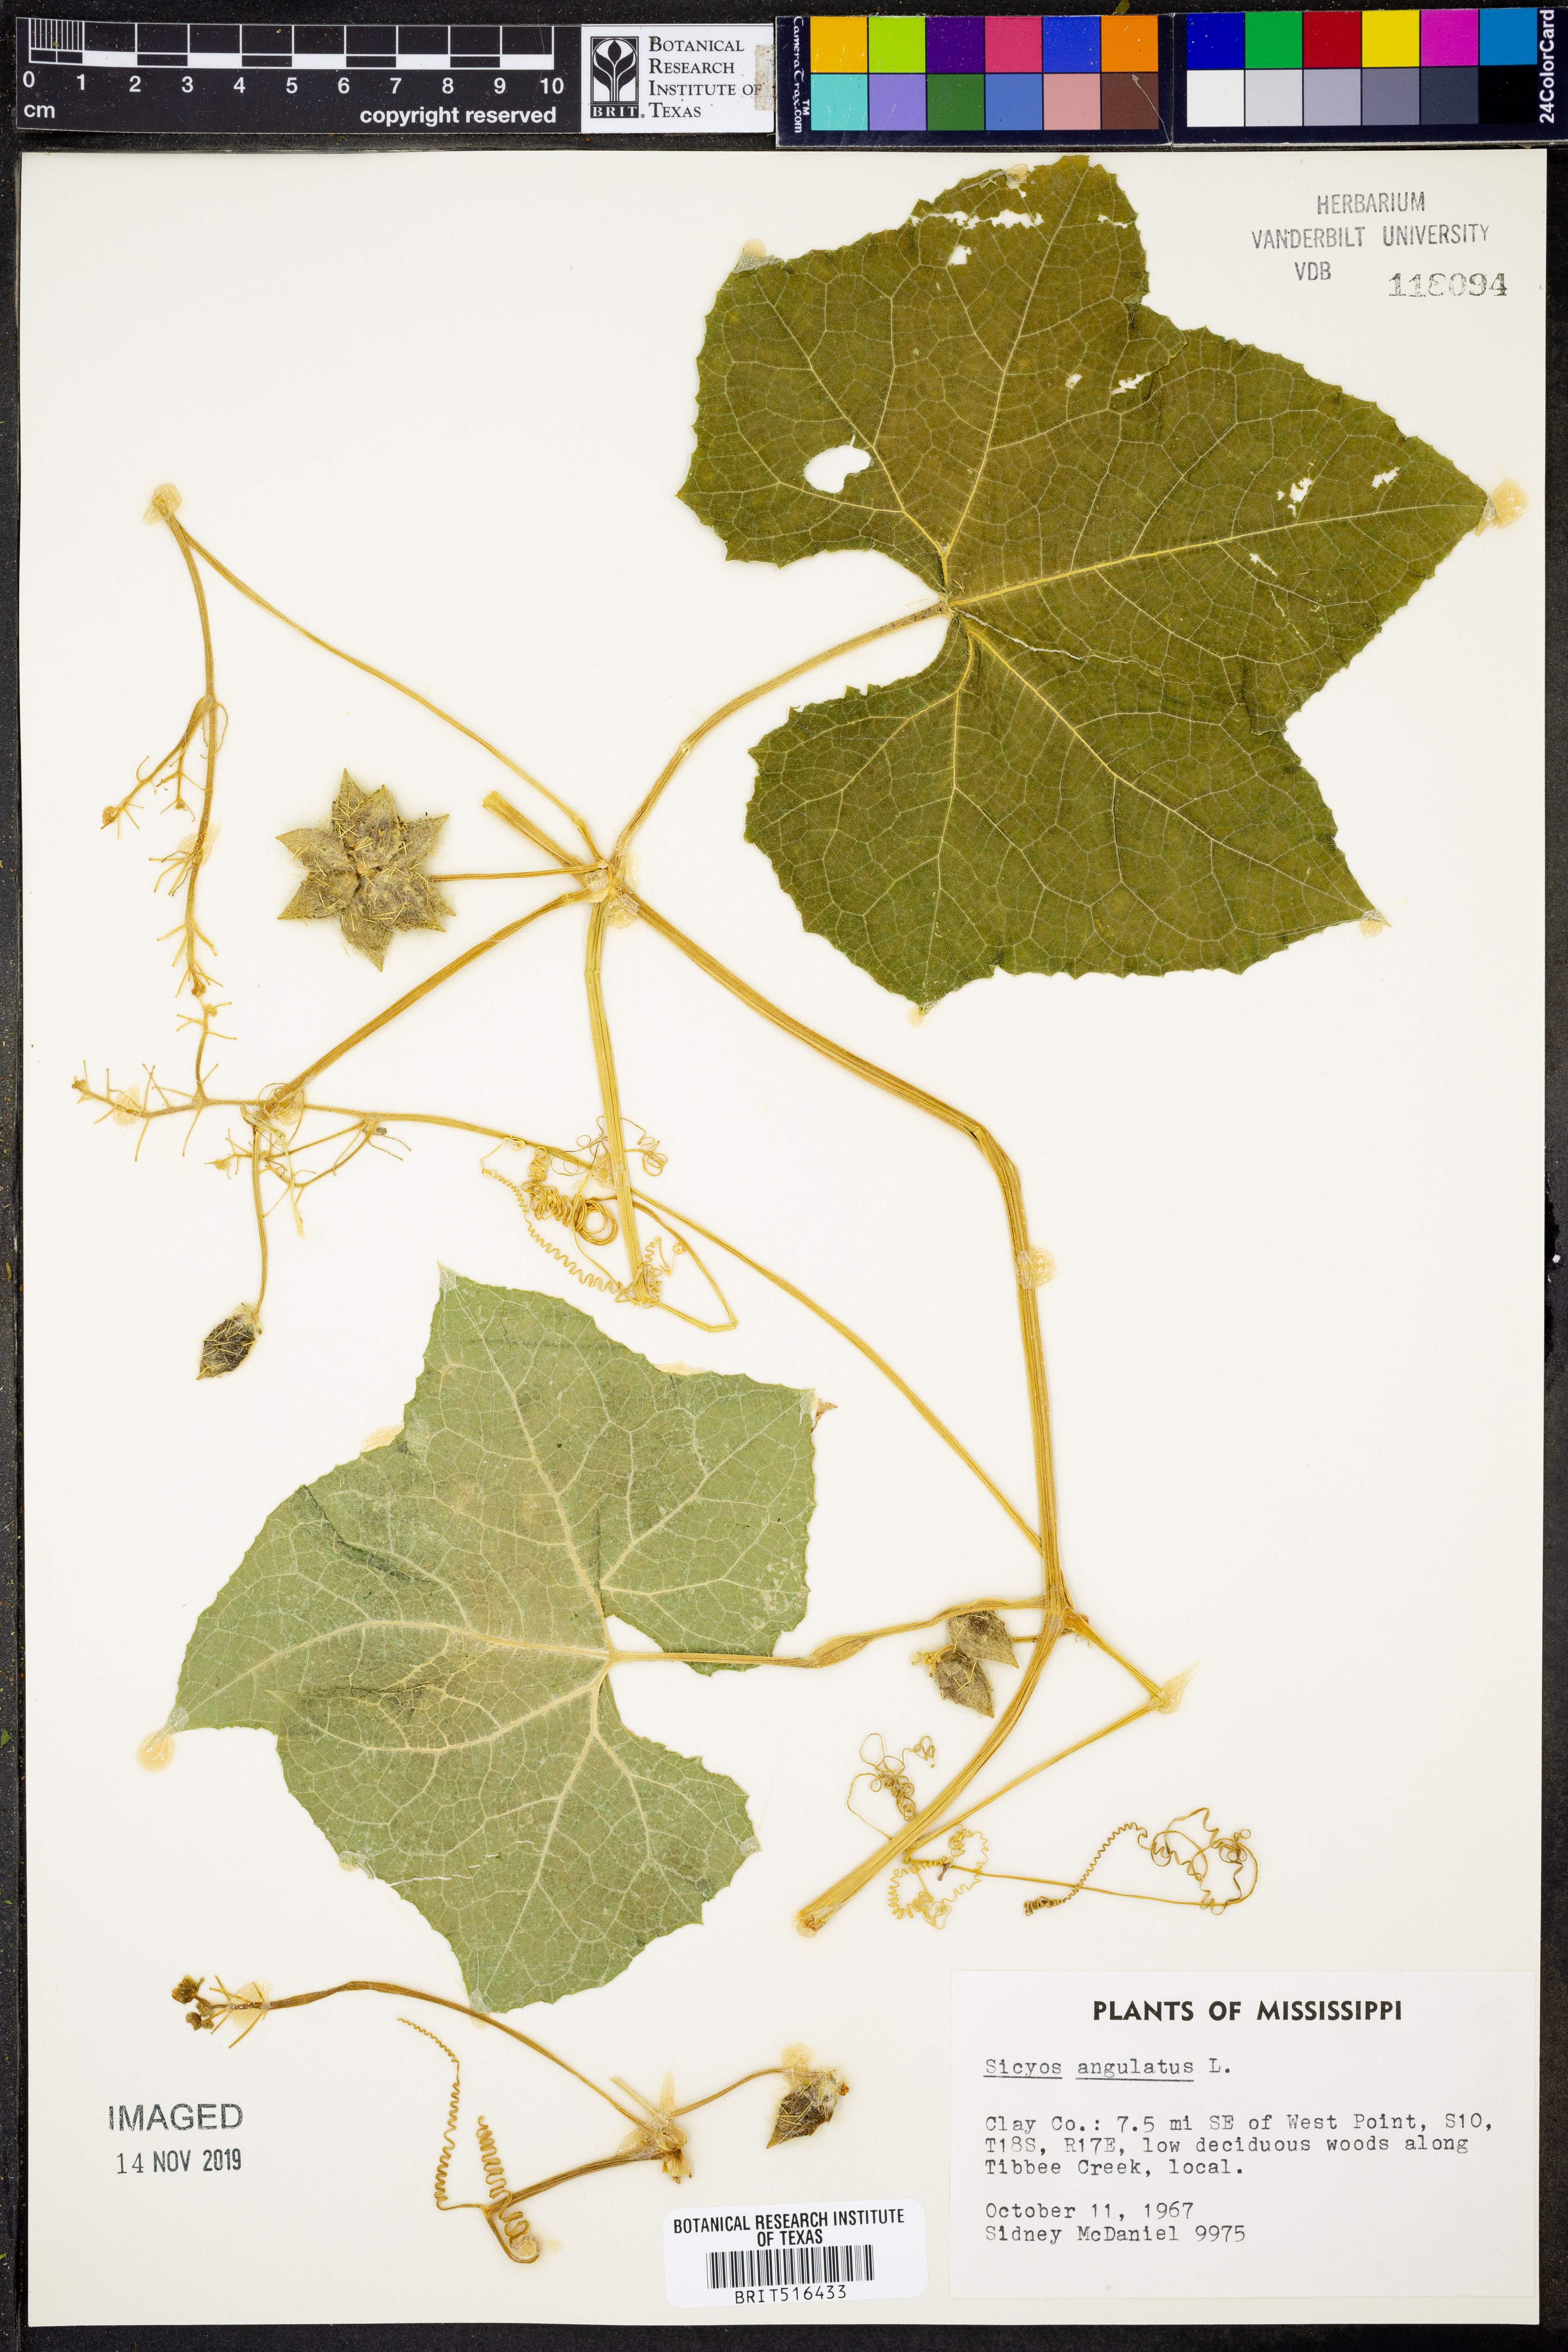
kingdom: Plantae
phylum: Tracheophyta
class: Magnoliopsida
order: Cucurbitales
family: Cucurbitaceae
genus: Sicyos
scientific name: Sicyos angulatus
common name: Angled burr cucumber
